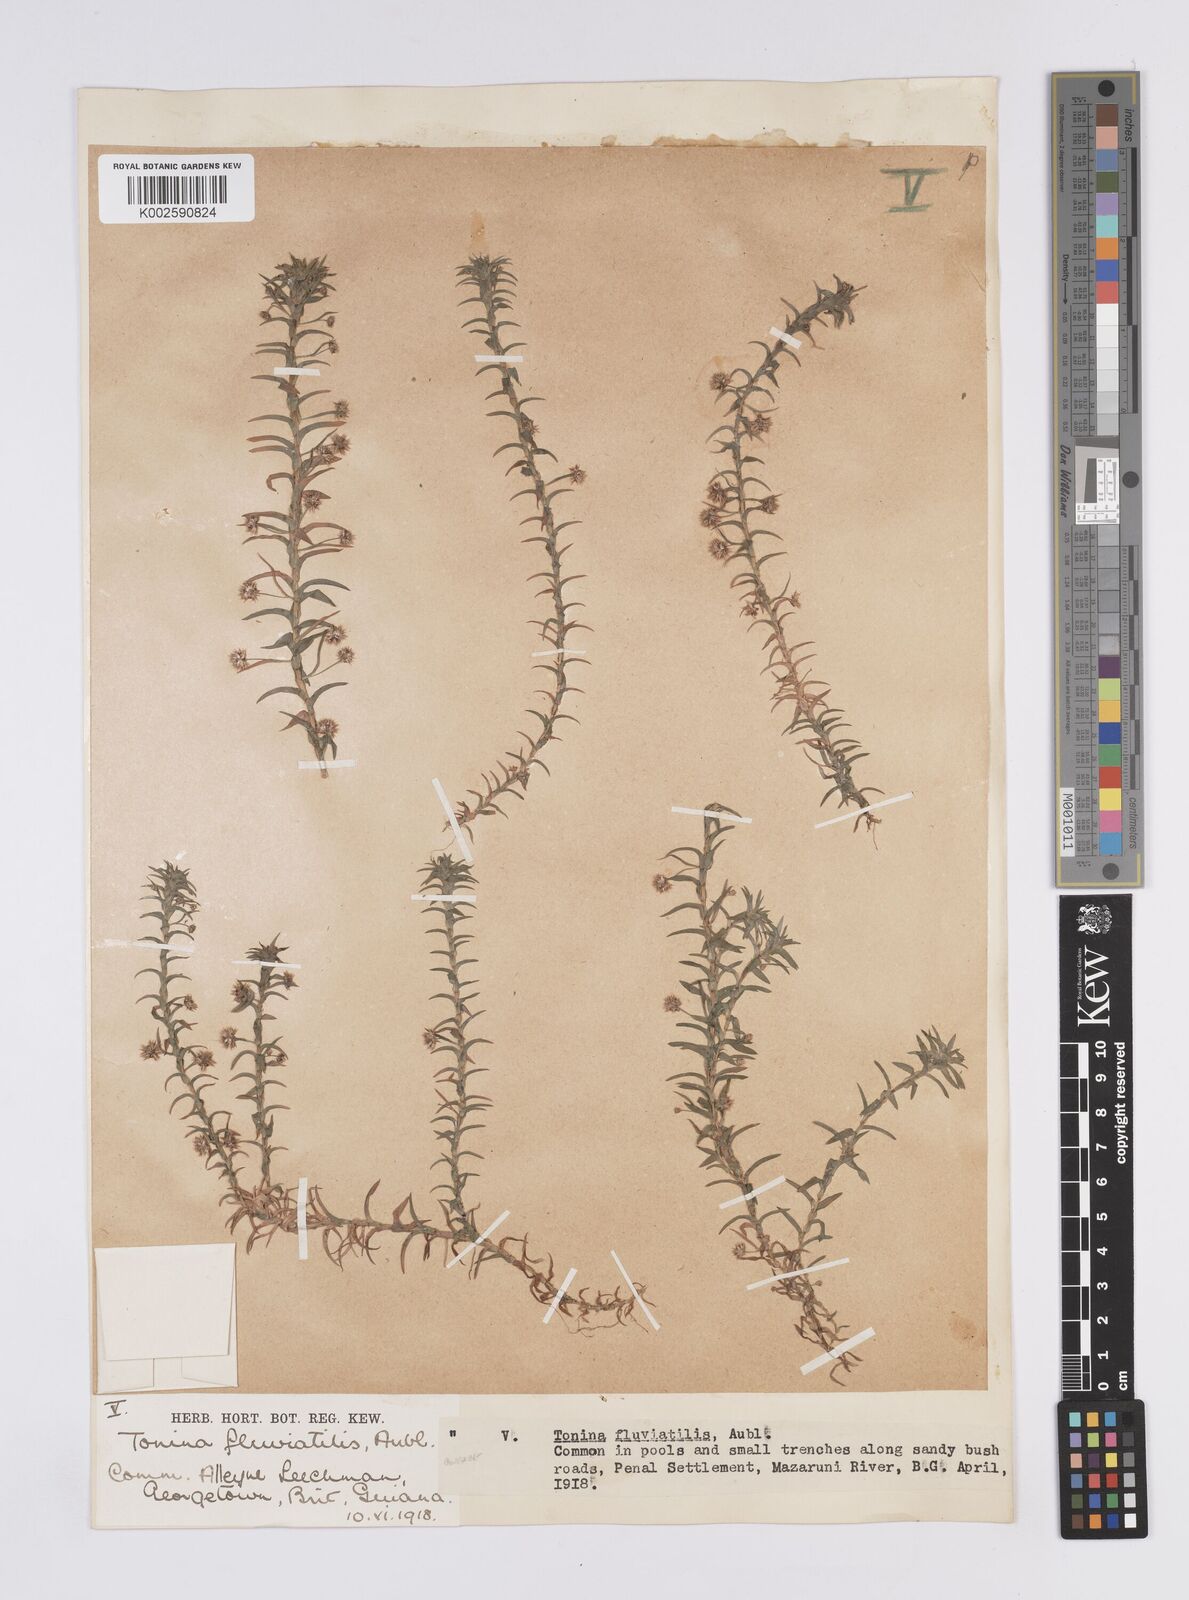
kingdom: Plantae
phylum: Tracheophyta
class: Liliopsida
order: Poales
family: Eriocaulaceae
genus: Paepalanthus
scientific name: Paepalanthus fluviatilis
